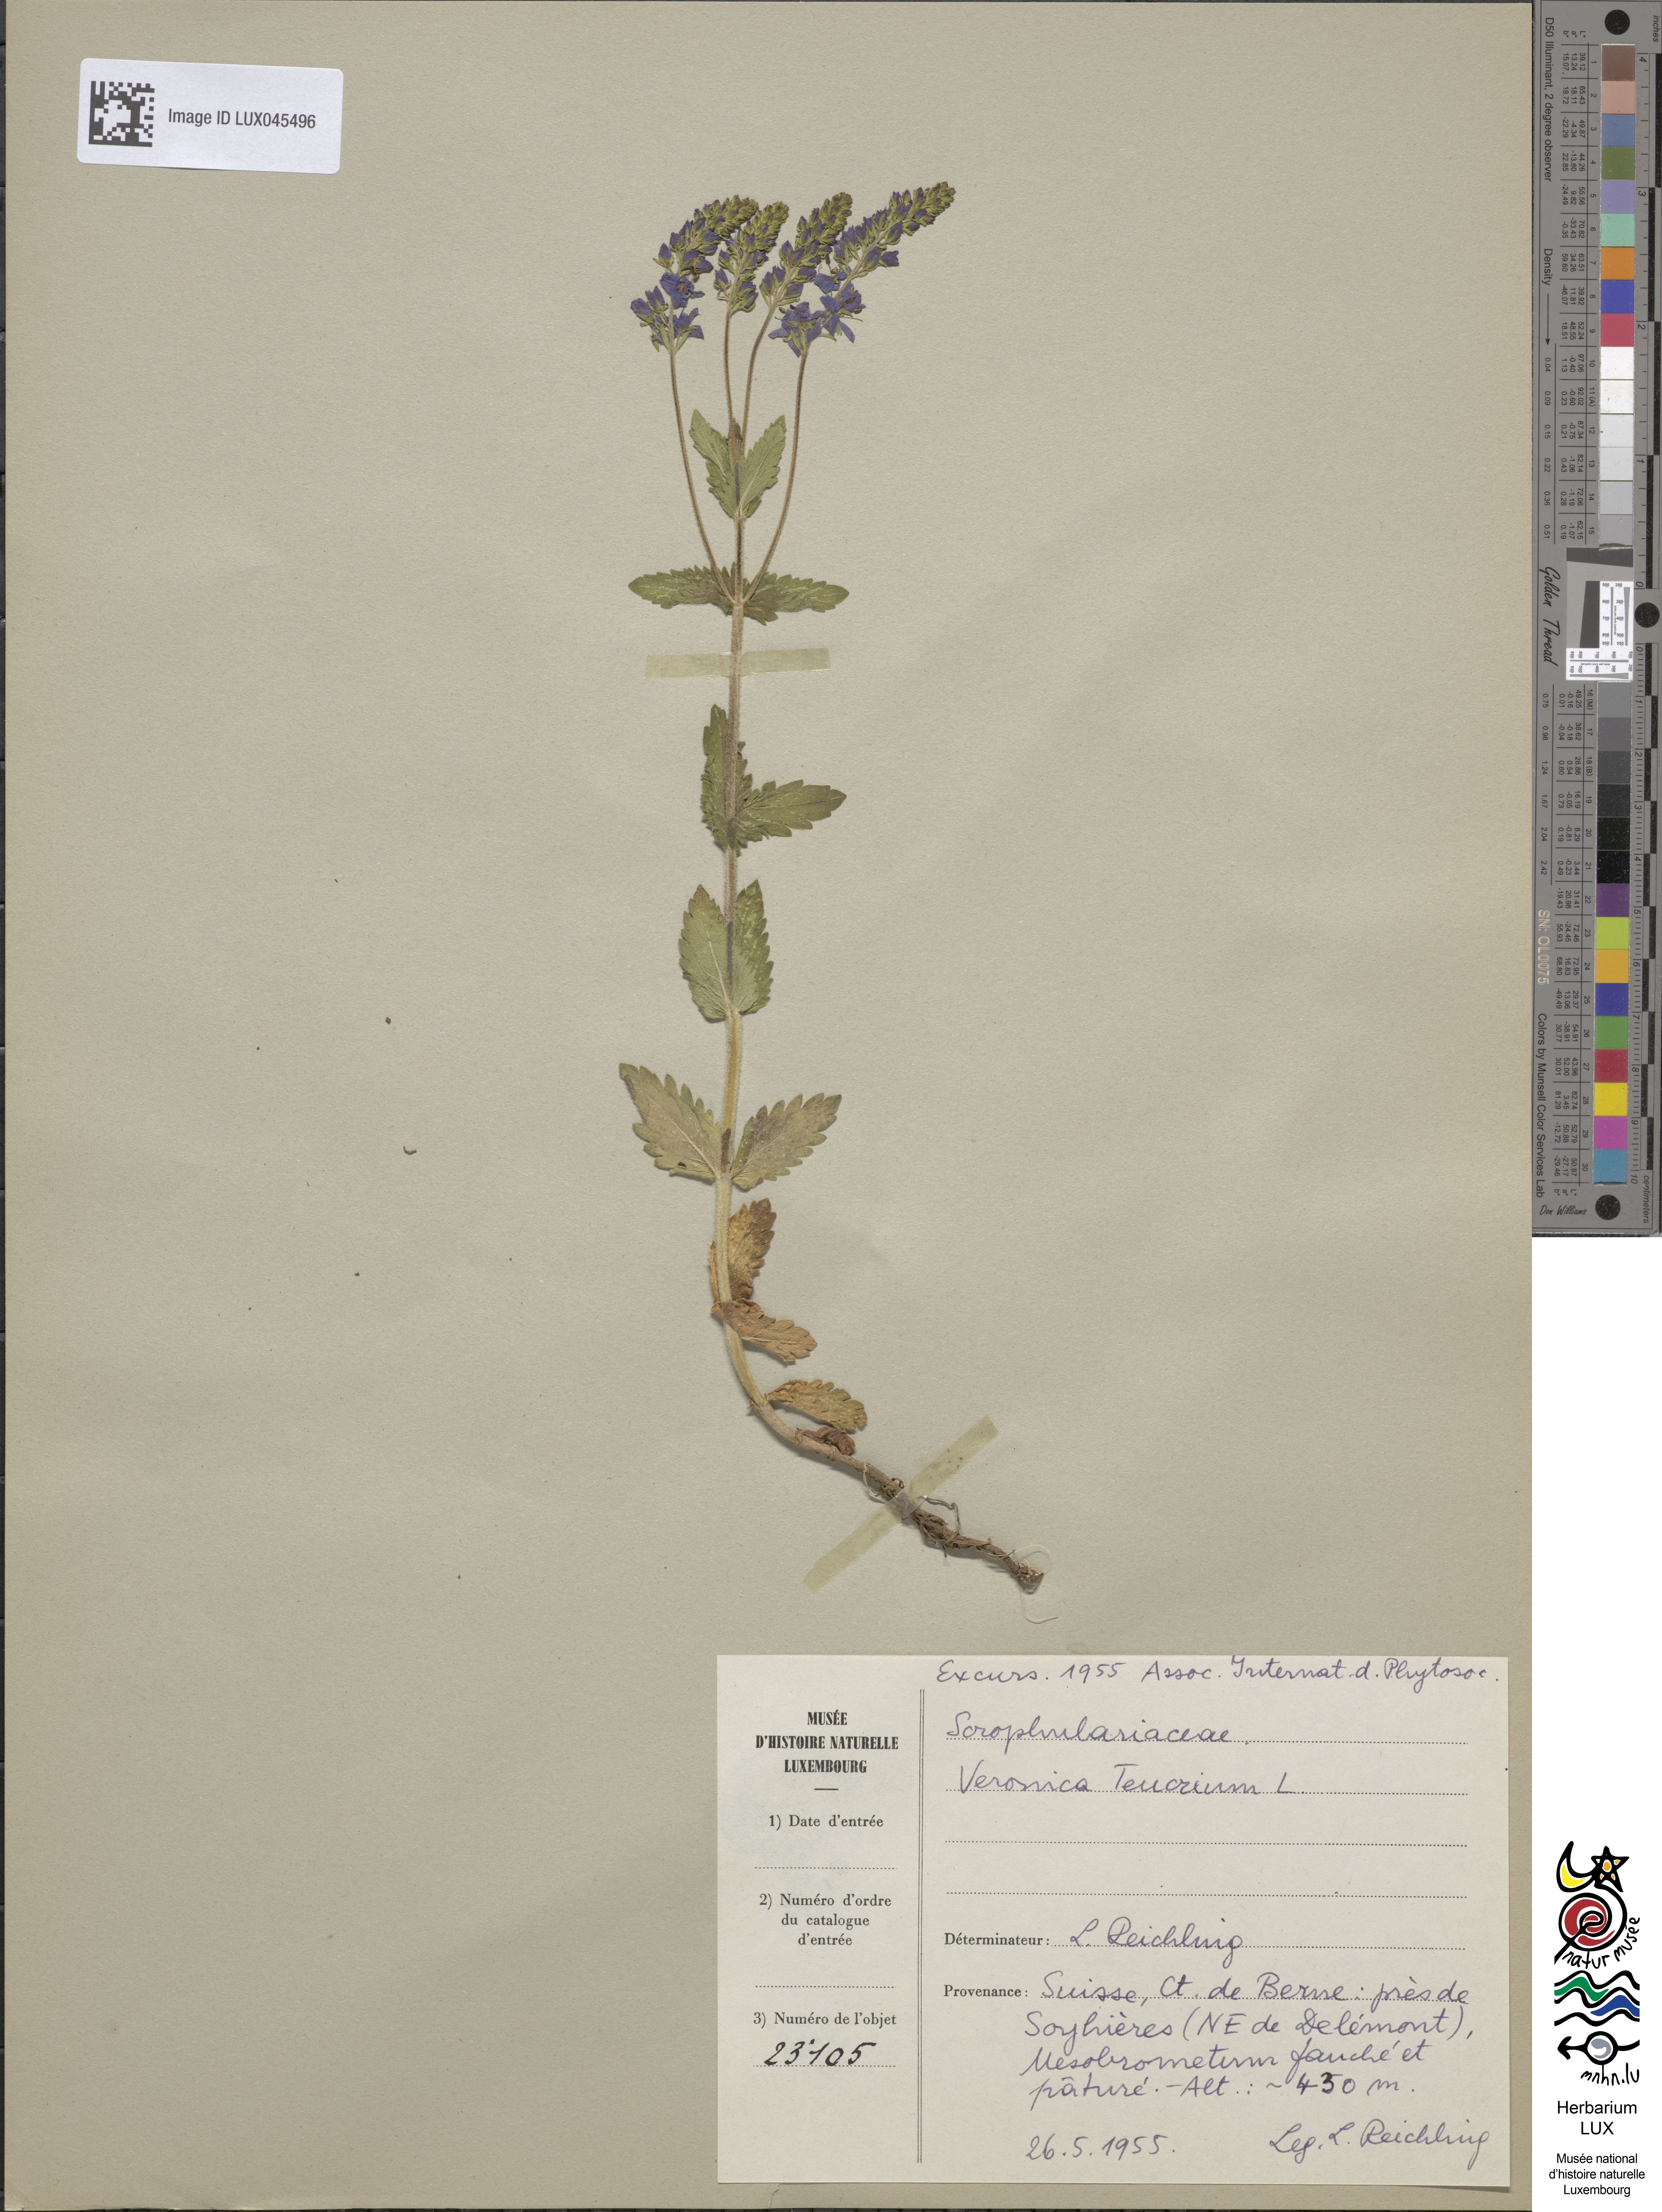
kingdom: Plantae
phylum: Tracheophyta
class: Magnoliopsida
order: Lamiales
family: Plantaginaceae
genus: Veronica
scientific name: Veronica teucrium
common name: Large speedwell
